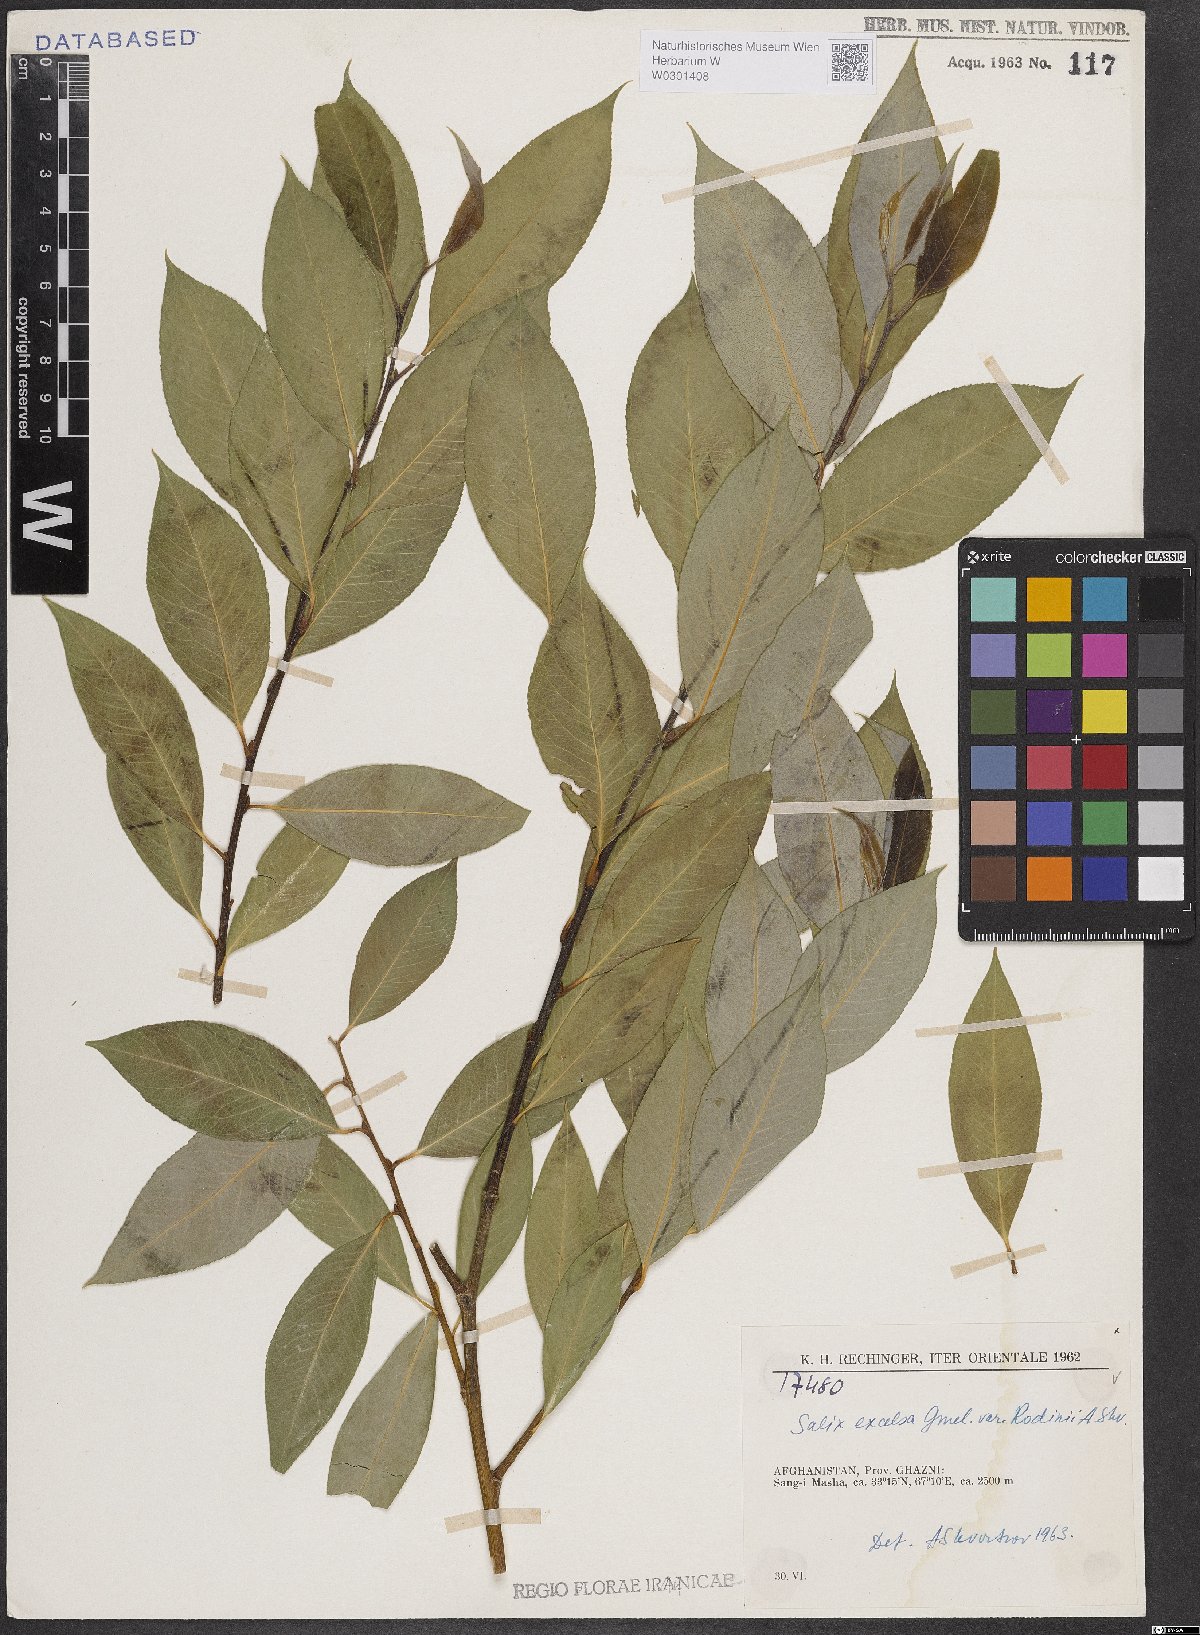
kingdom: Plantae
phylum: Tracheophyta
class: Magnoliopsida
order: Malpighiales
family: Salicaceae
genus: Salix
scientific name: Salix excelsa
